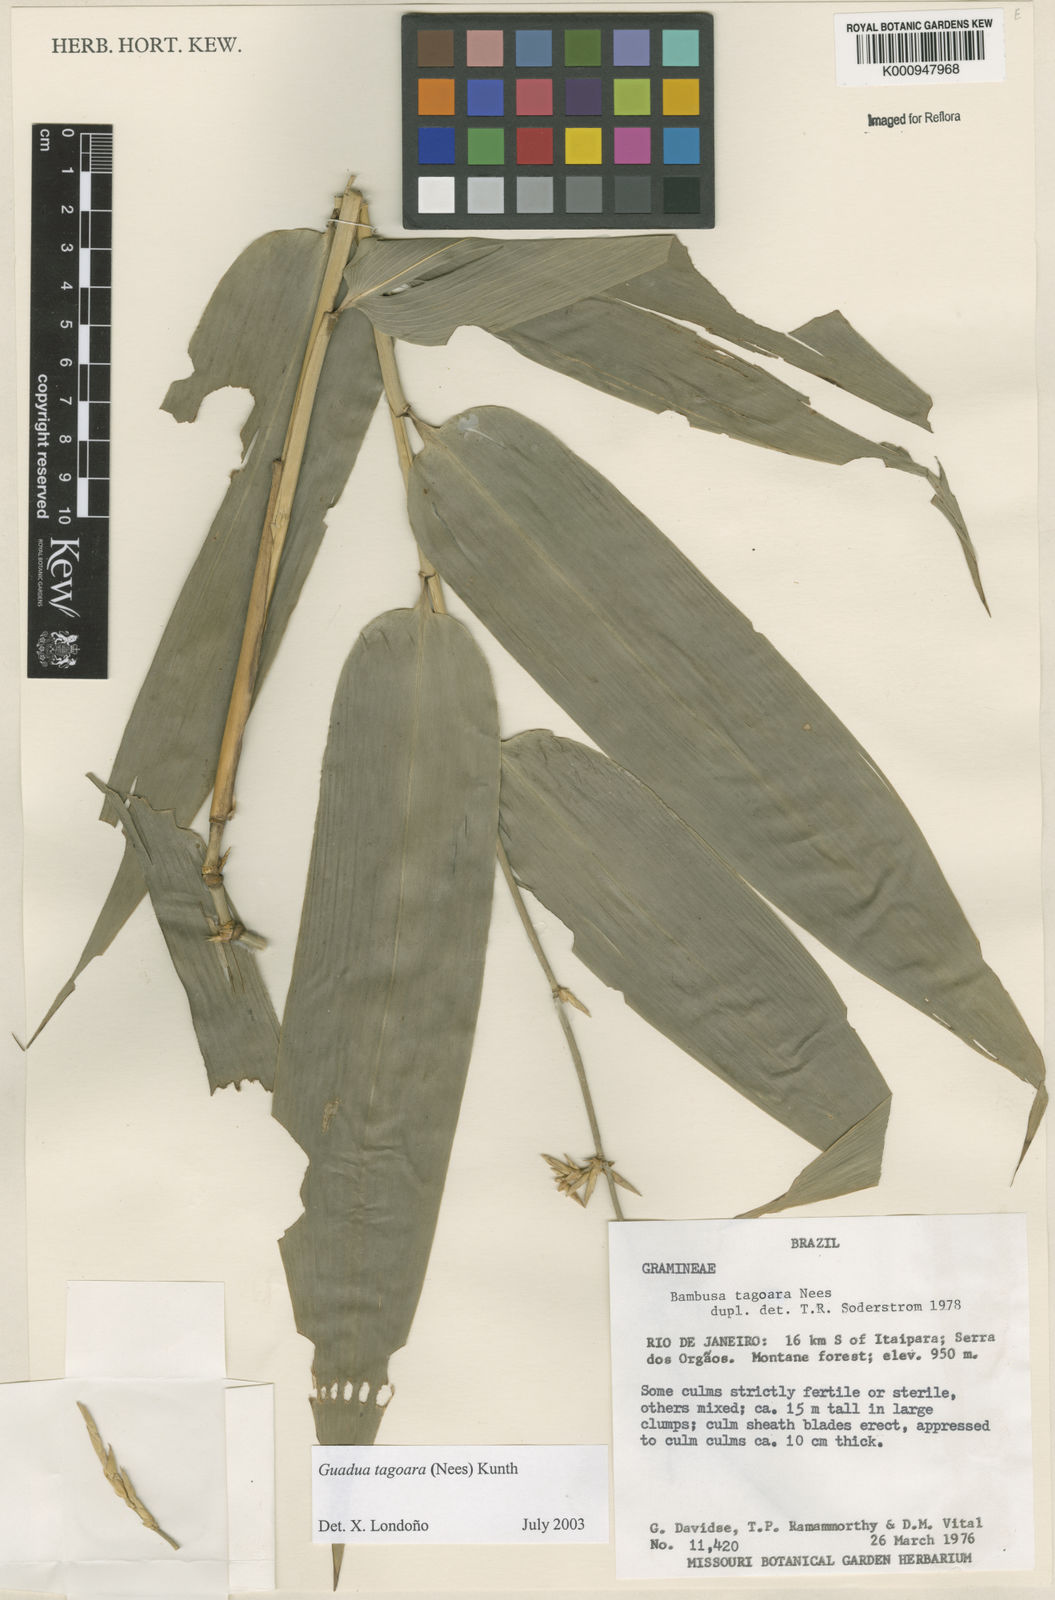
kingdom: Plantae
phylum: Tracheophyta
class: Liliopsida
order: Poales
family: Poaceae
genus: Guadua
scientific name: Guadua tagoara
